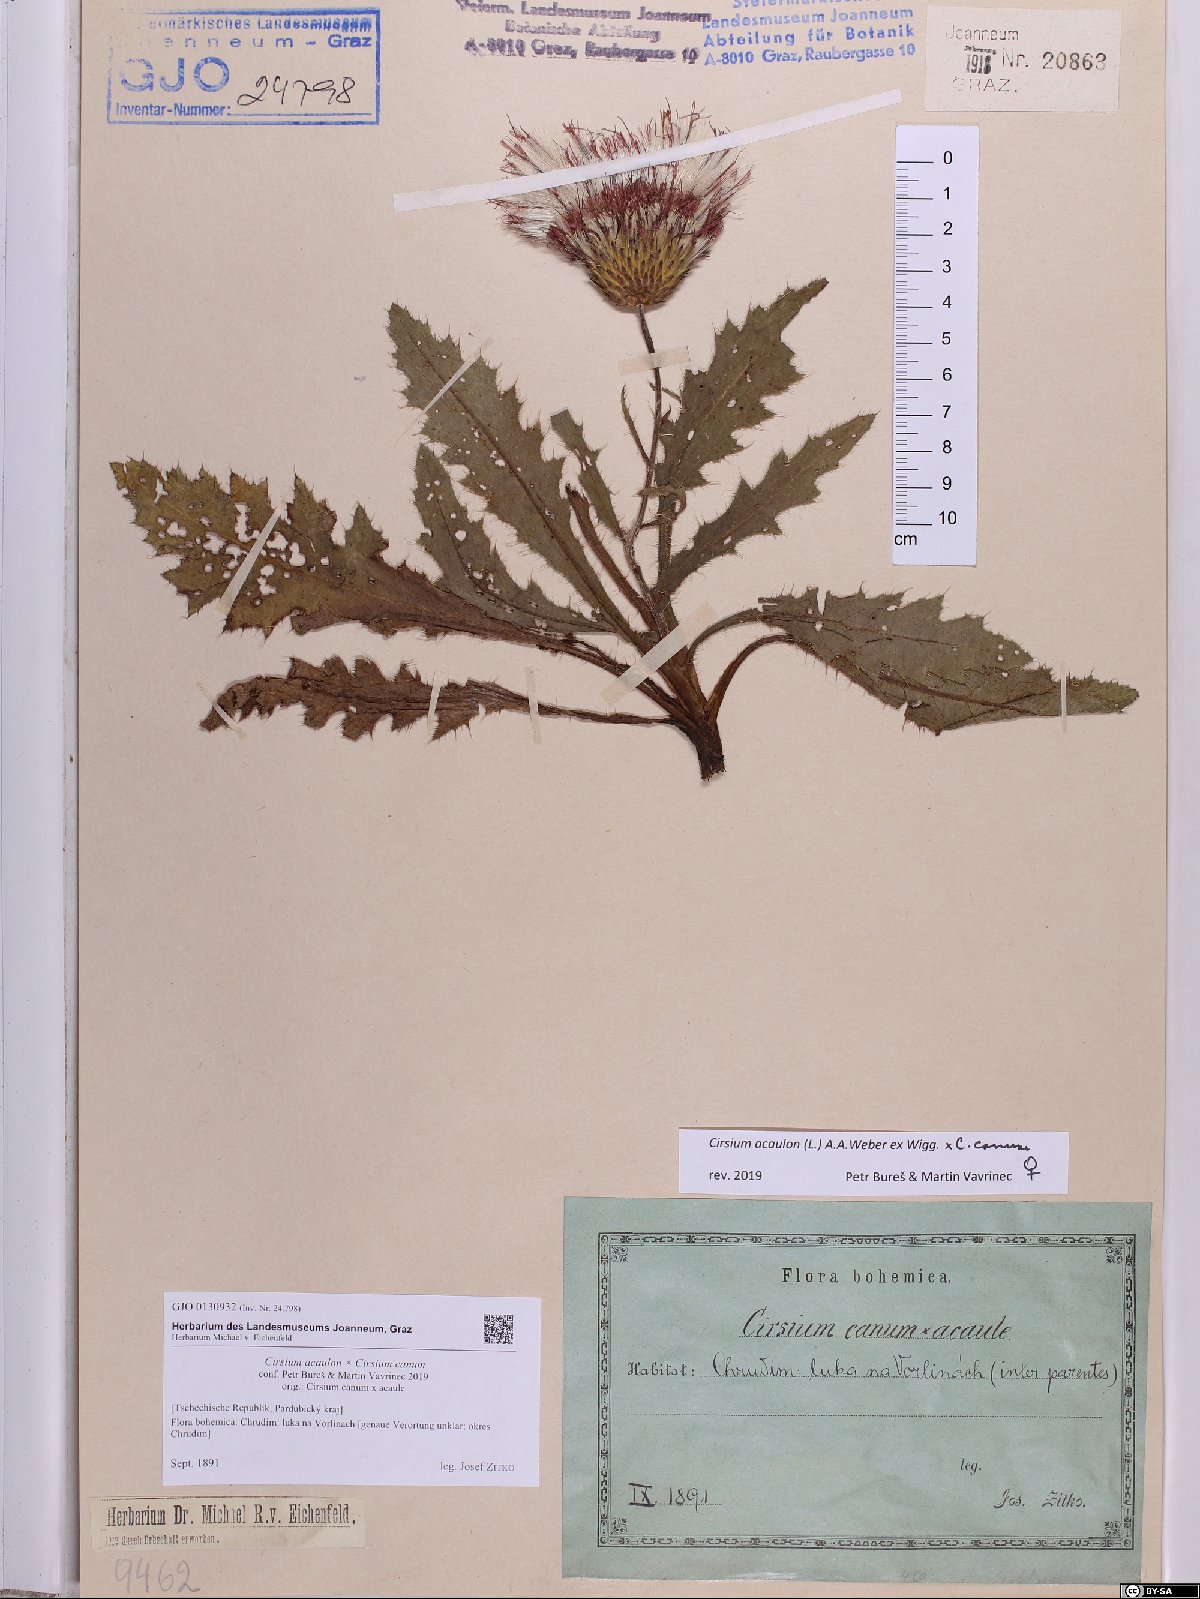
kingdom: Plantae
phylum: Tracheophyta
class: Magnoliopsida
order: Asterales
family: Asteraceae
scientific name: Asteraceae
